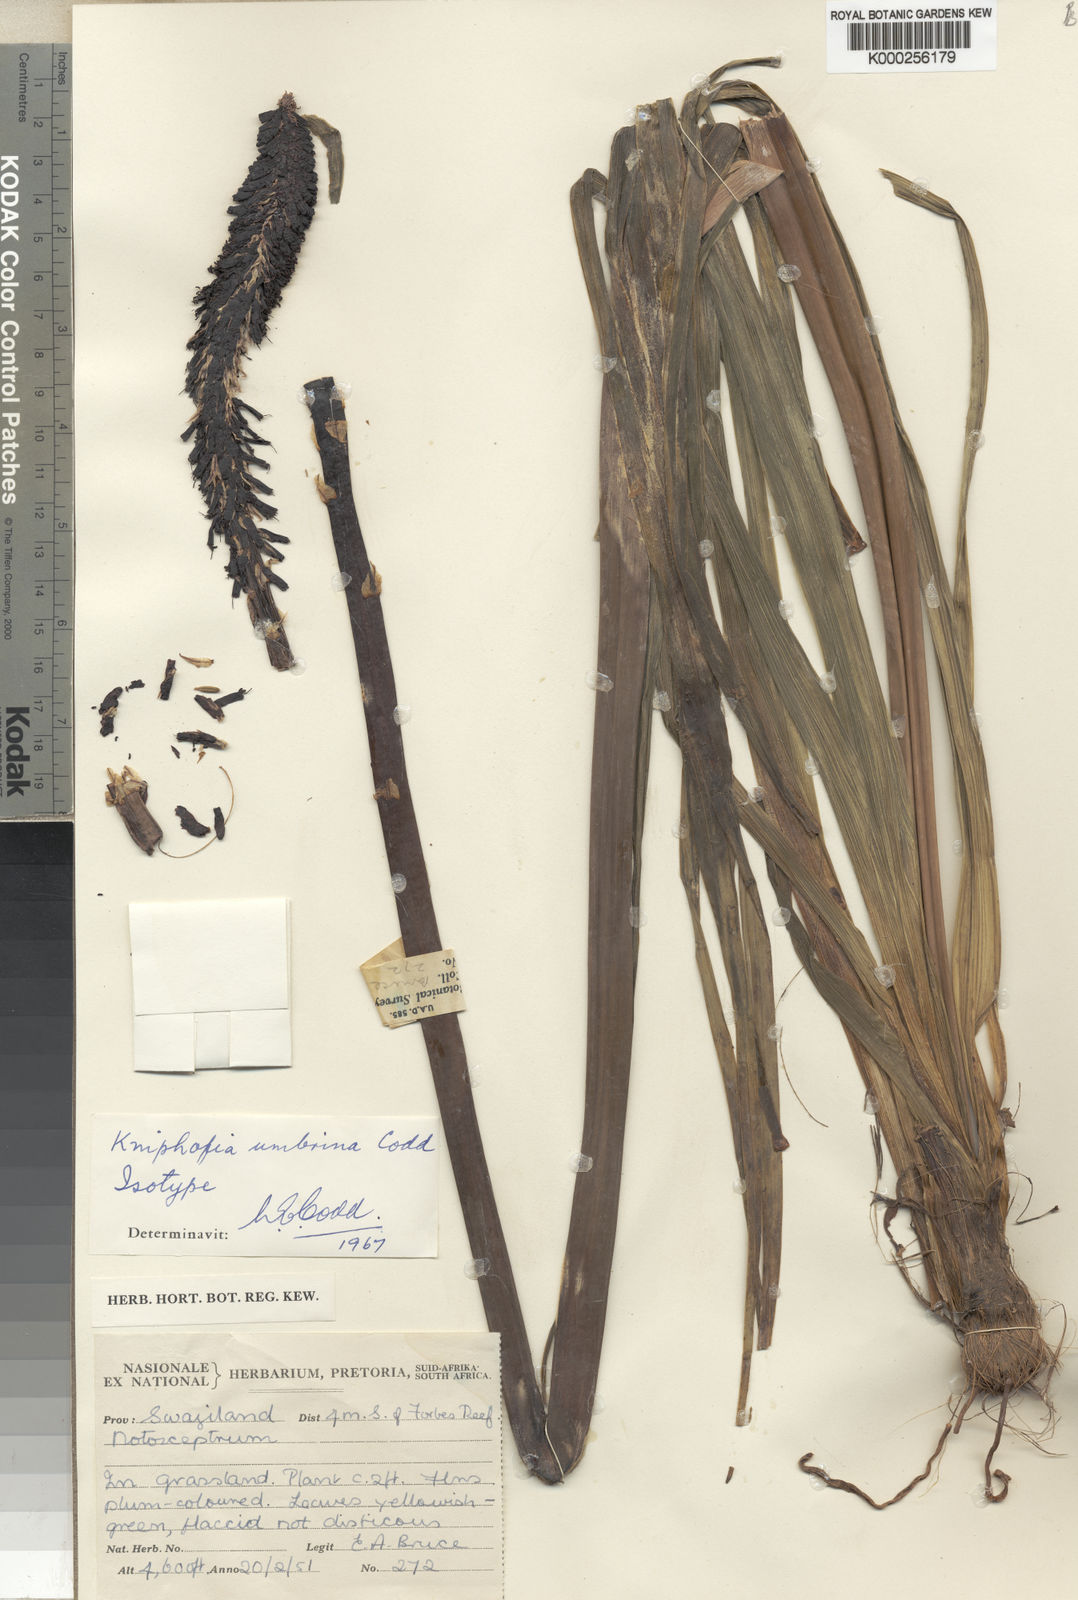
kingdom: Plantae
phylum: Tracheophyta
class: Liliopsida
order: Asparagales
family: Asphodelaceae
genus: Kniphofia
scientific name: Kniphofia umbrina
